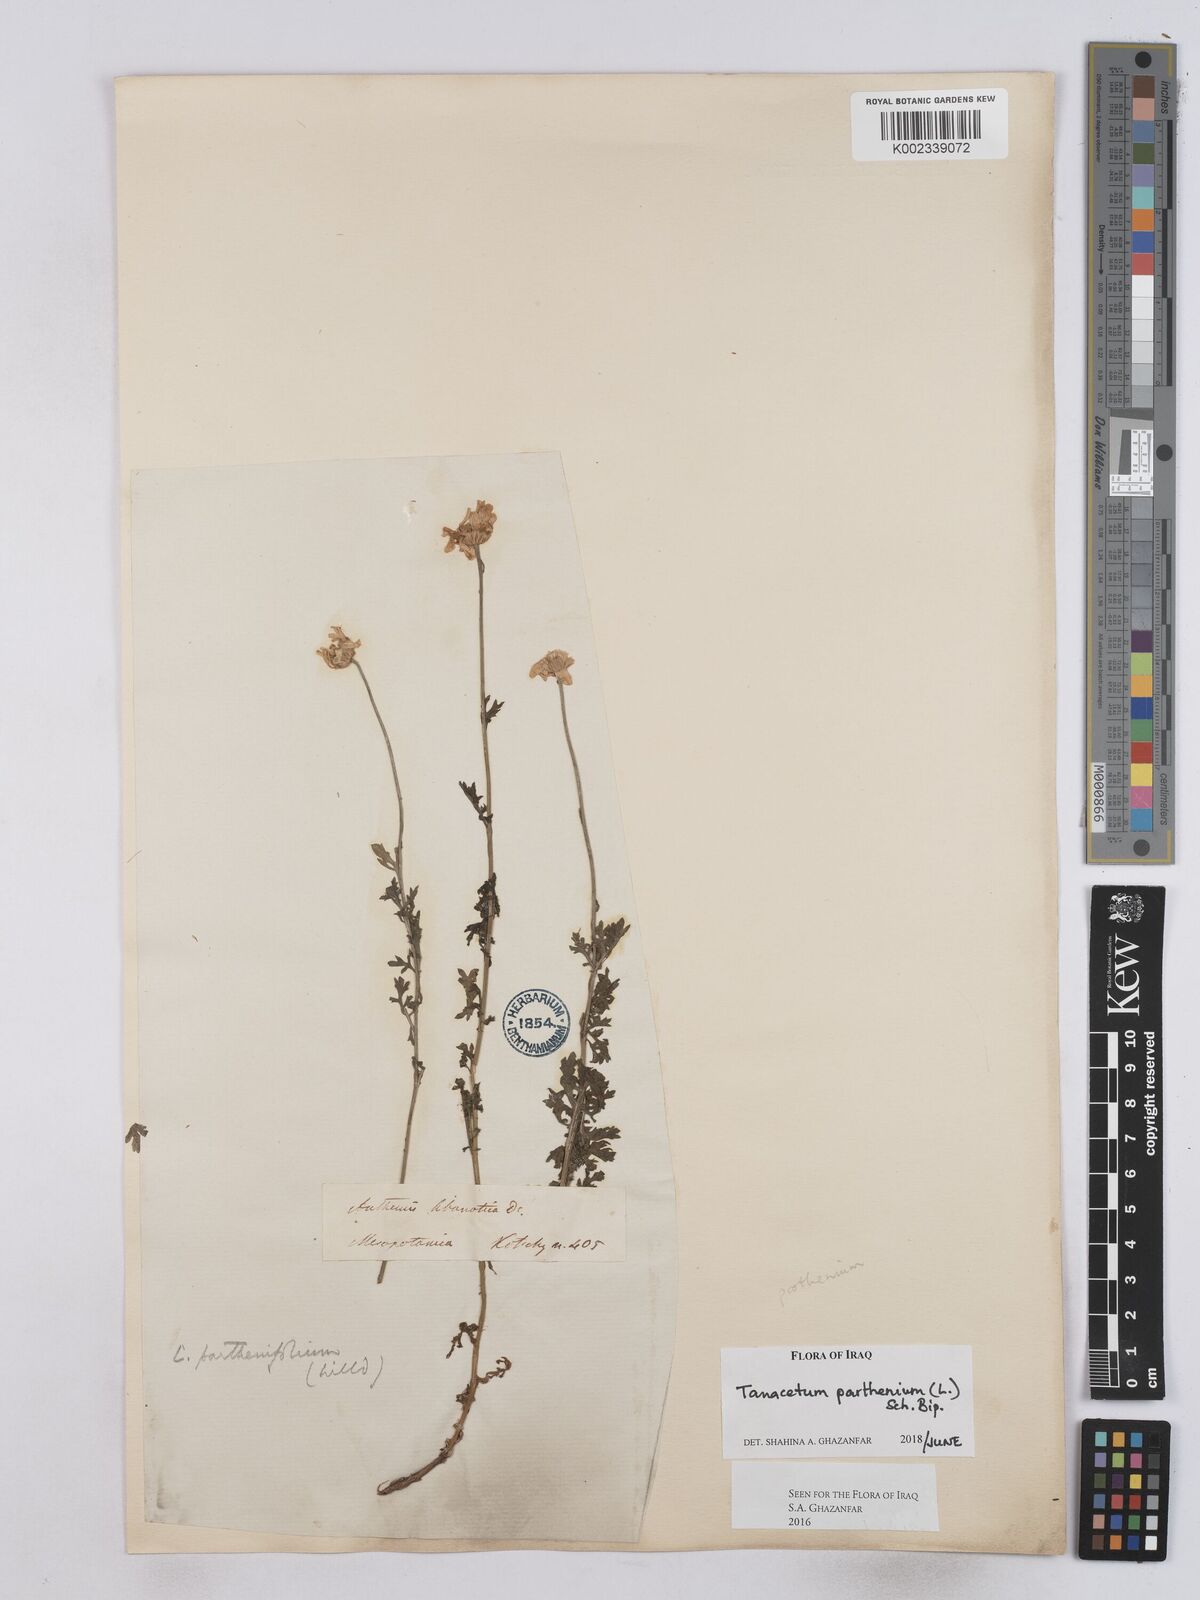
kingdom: Plantae
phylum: Tracheophyta
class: Magnoliopsida
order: Asterales
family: Asteraceae
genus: Tanacetum
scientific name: Tanacetum parthenium
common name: Feverfew
